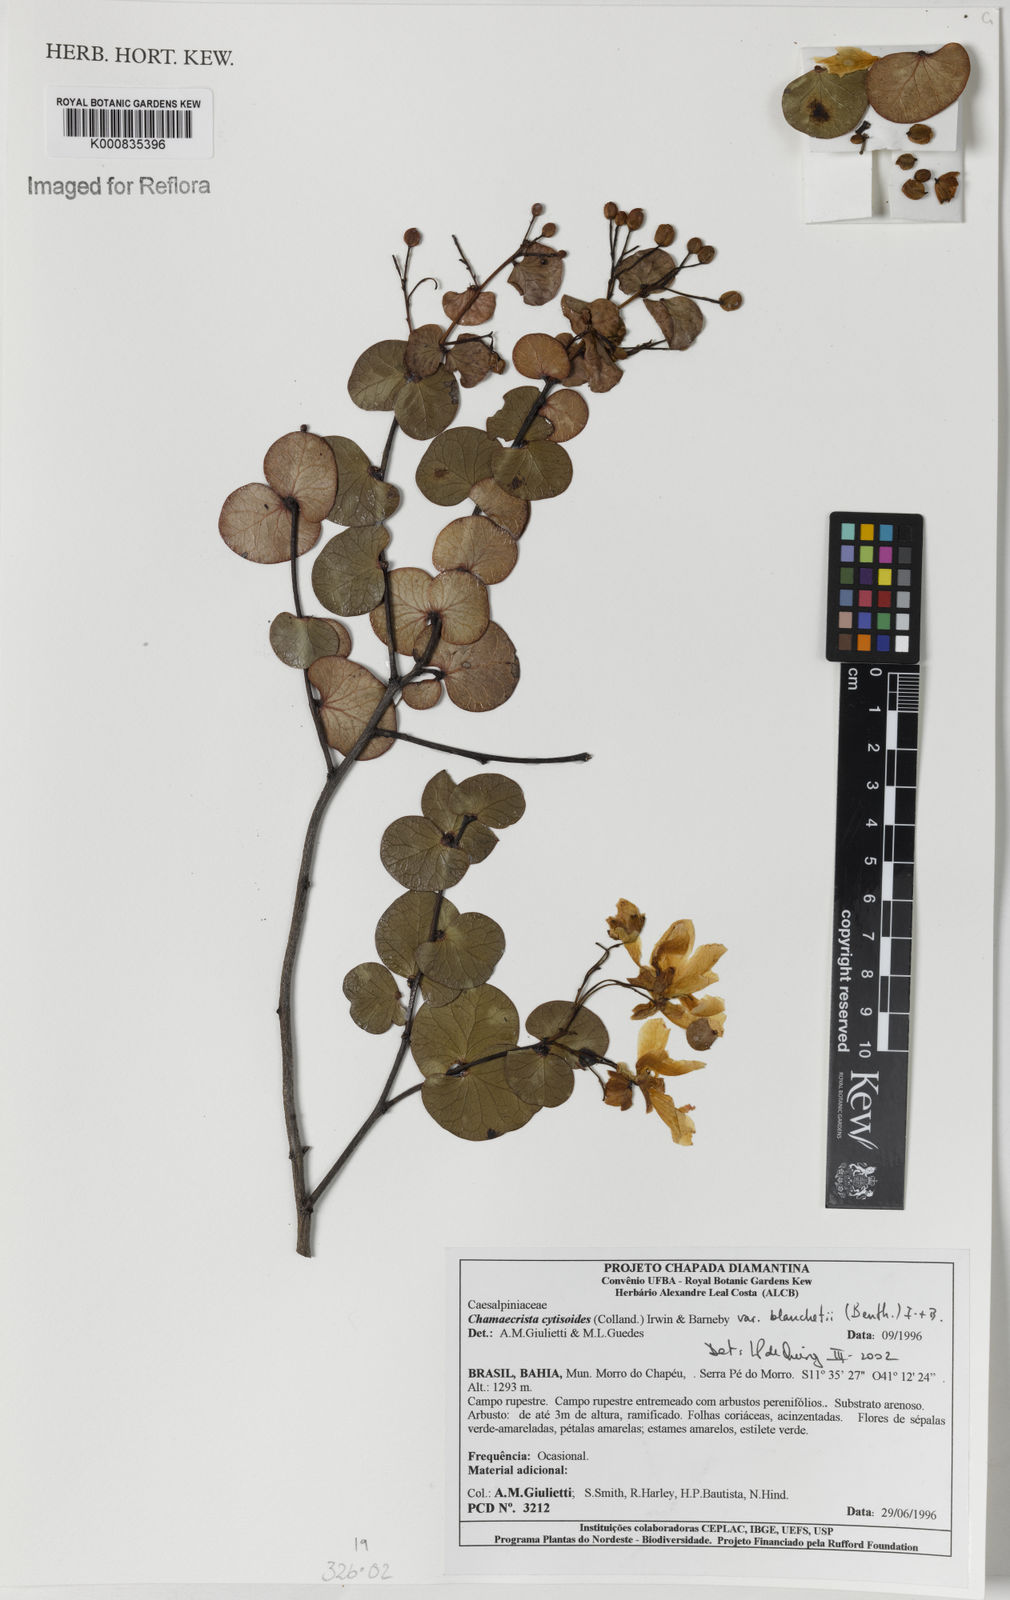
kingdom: Plantae
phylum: Tracheophyta
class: Magnoliopsida
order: Fabales
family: Fabaceae
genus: Chamaecrista
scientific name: Chamaecrista cytisoides
